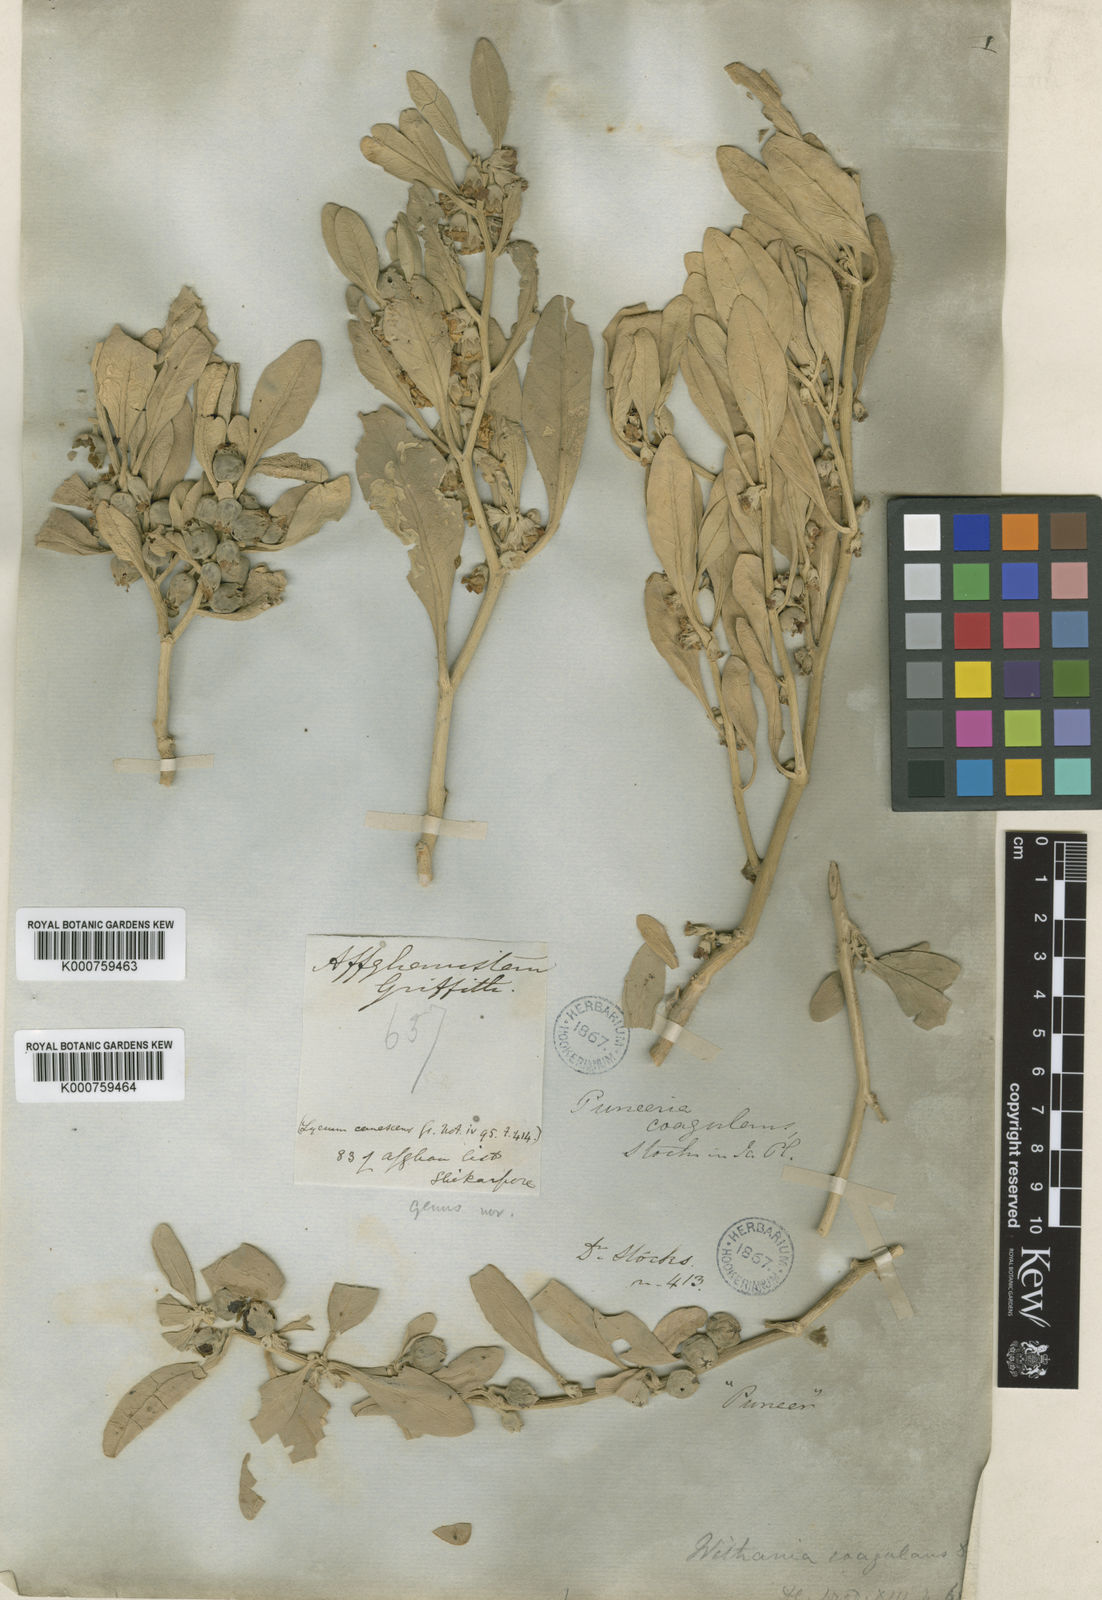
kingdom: Plantae
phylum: Tracheophyta
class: Magnoliopsida
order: Solanales
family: Solanaceae
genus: Withania
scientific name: Withania coagulans
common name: Vegetable rennet
